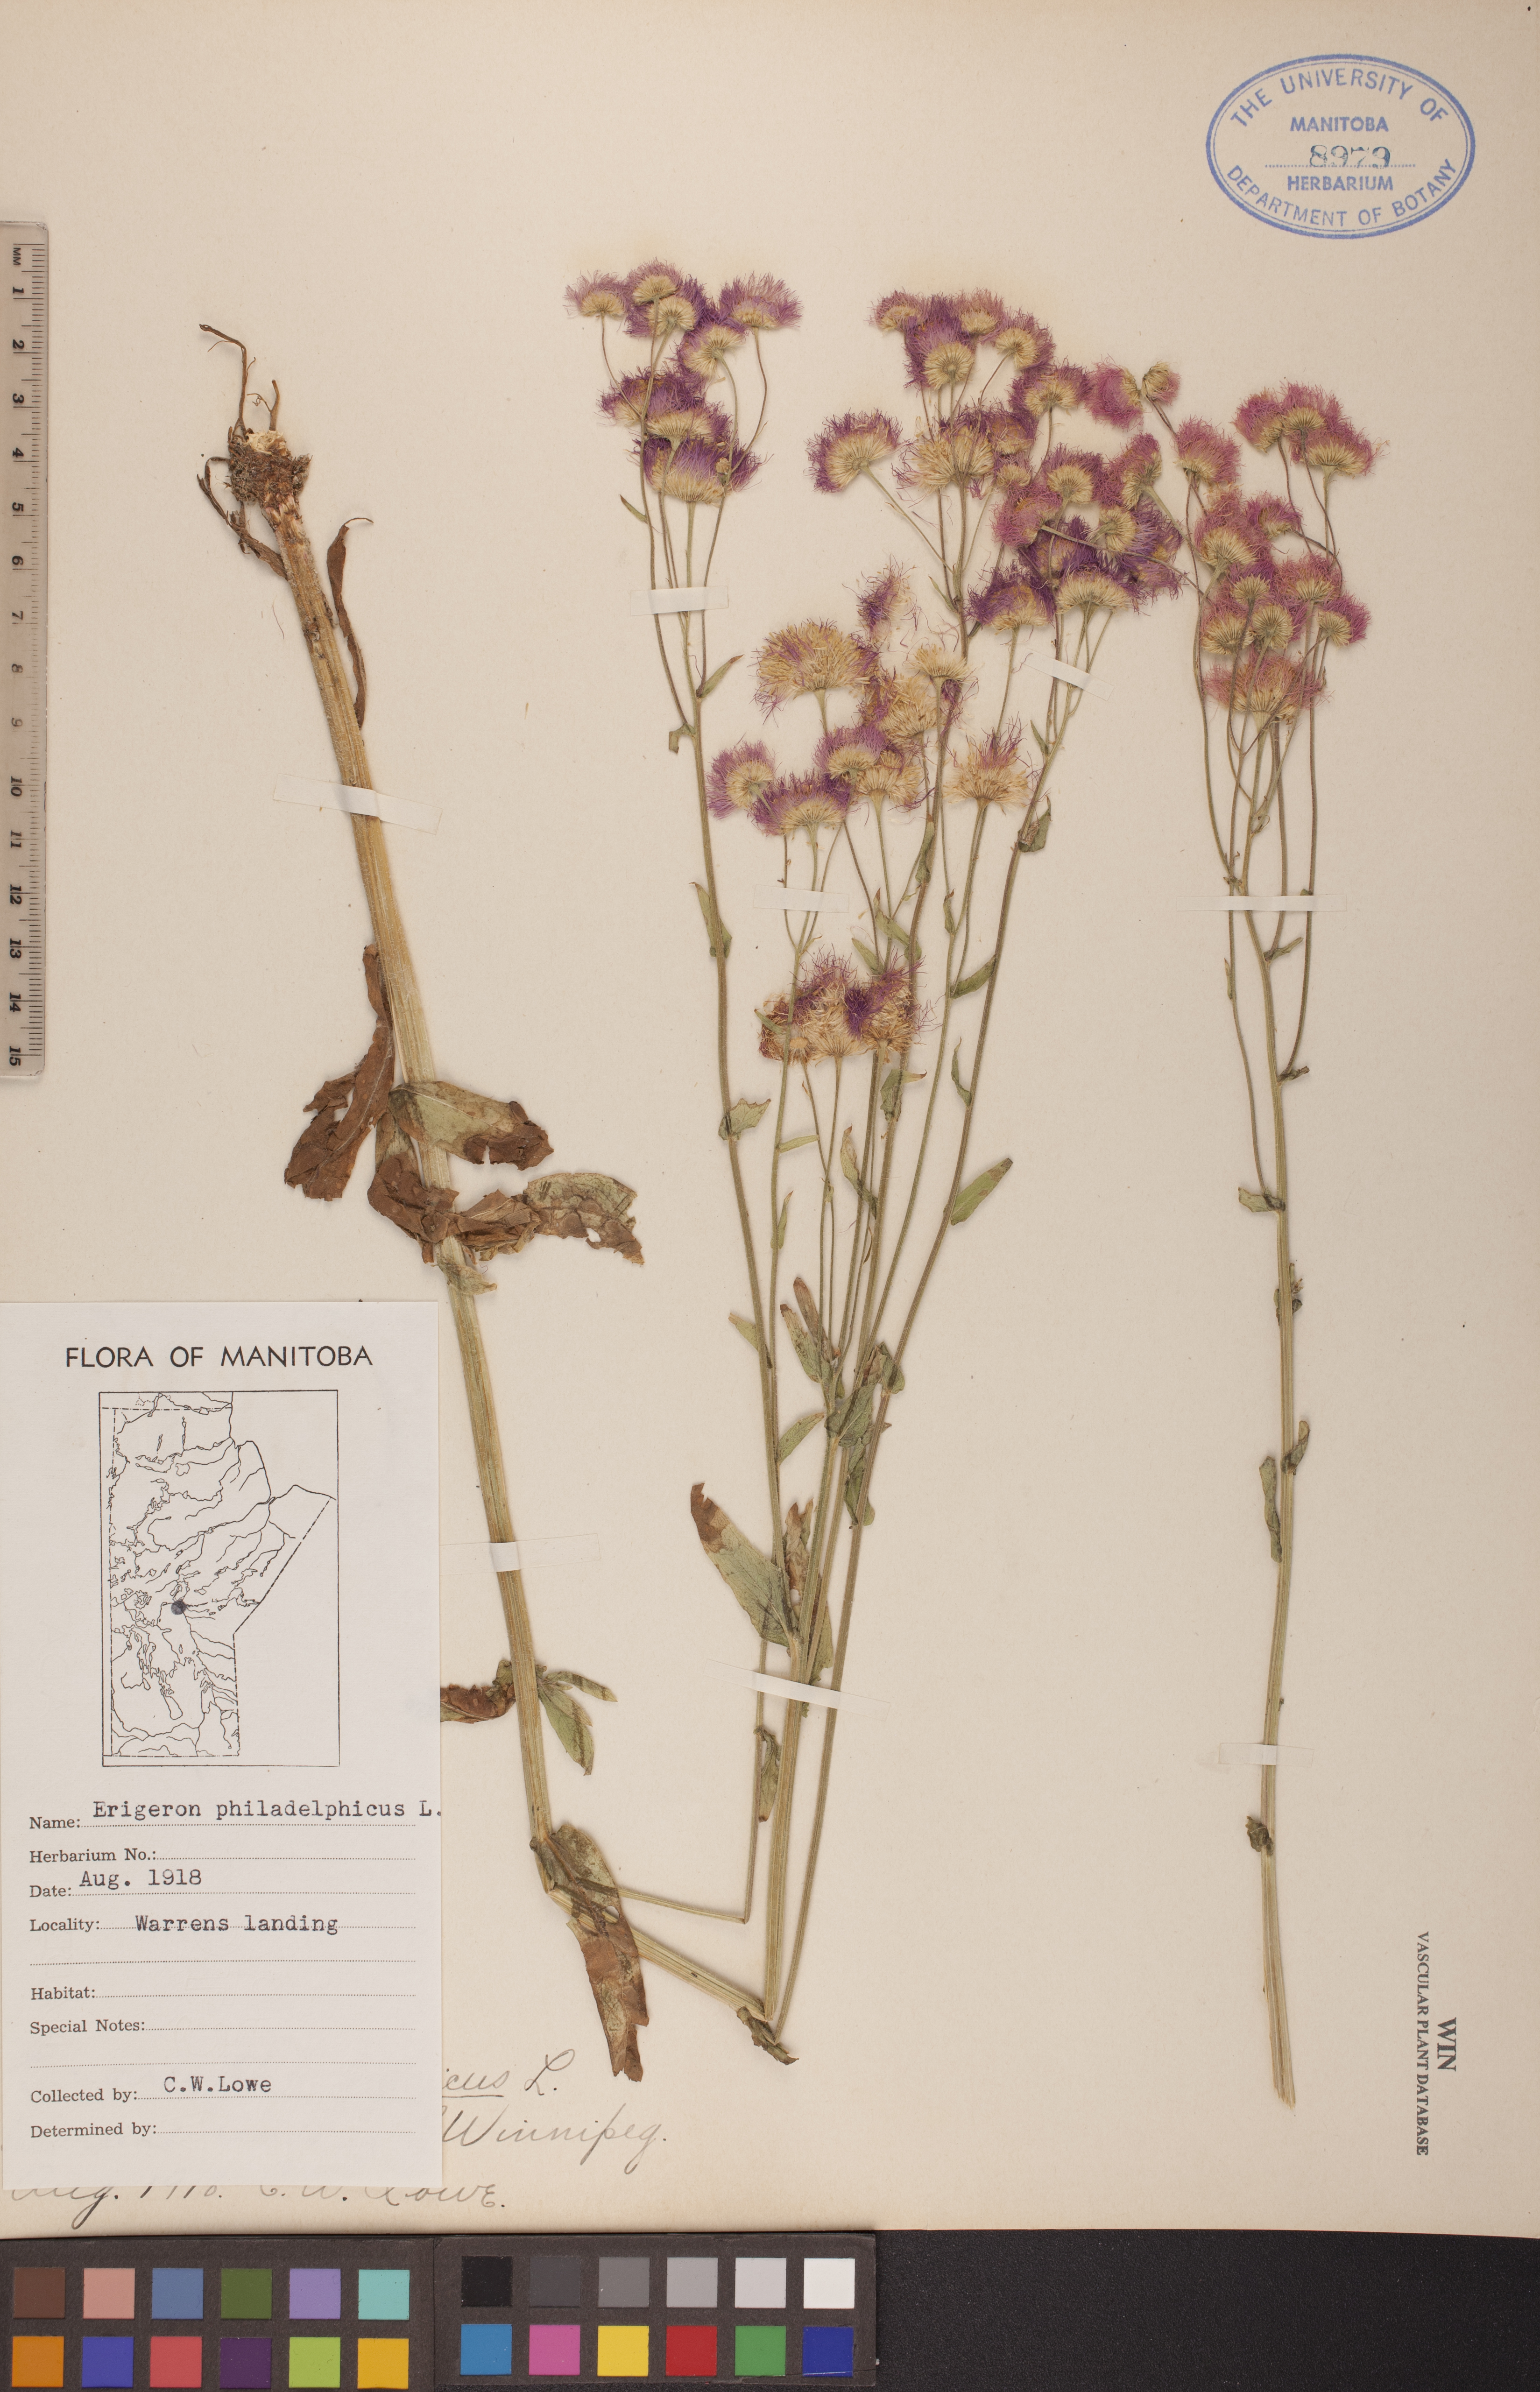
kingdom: Plantae
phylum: Tracheophyta
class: Magnoliopsida
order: Asterales
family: Asteraceae
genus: Erigeron
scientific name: Erigeron philadelphicus
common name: Robin's-plantain
